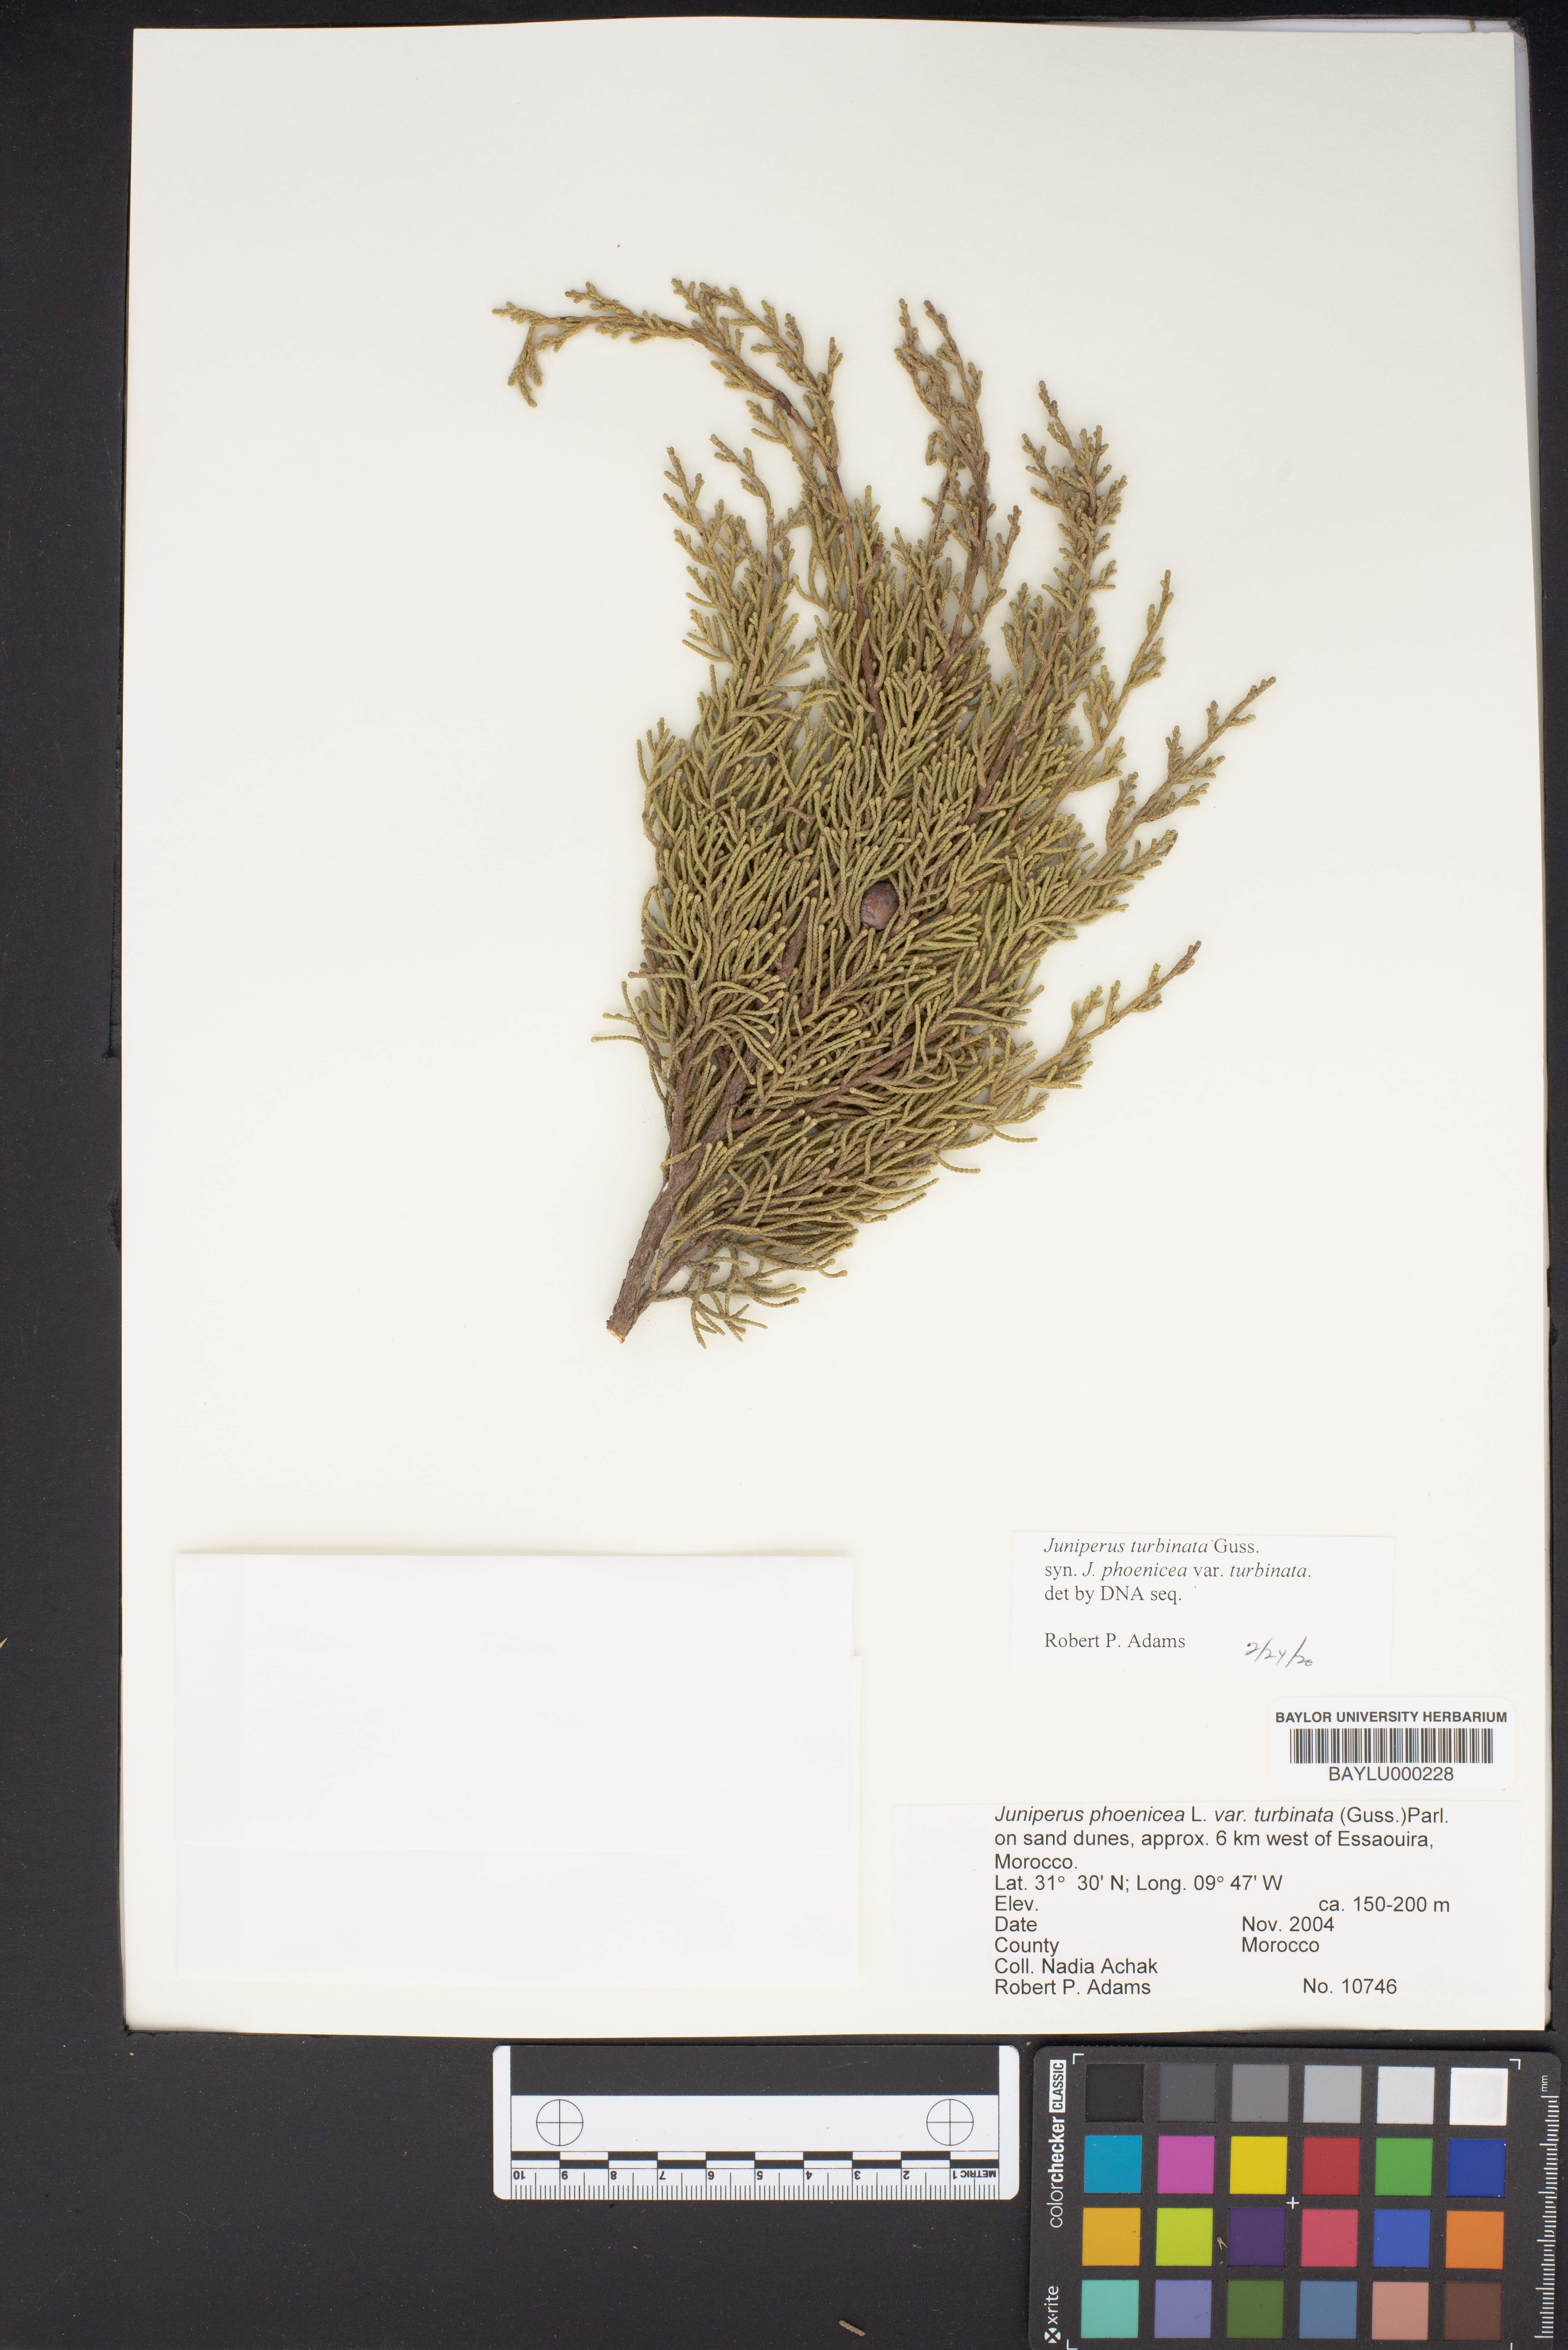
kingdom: Plantae
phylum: Tracheophyta
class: Pinopsida
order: Pinales
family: Cupressaceae
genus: Juniperus
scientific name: Juniperus phoenicea
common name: Phoenician juniper
